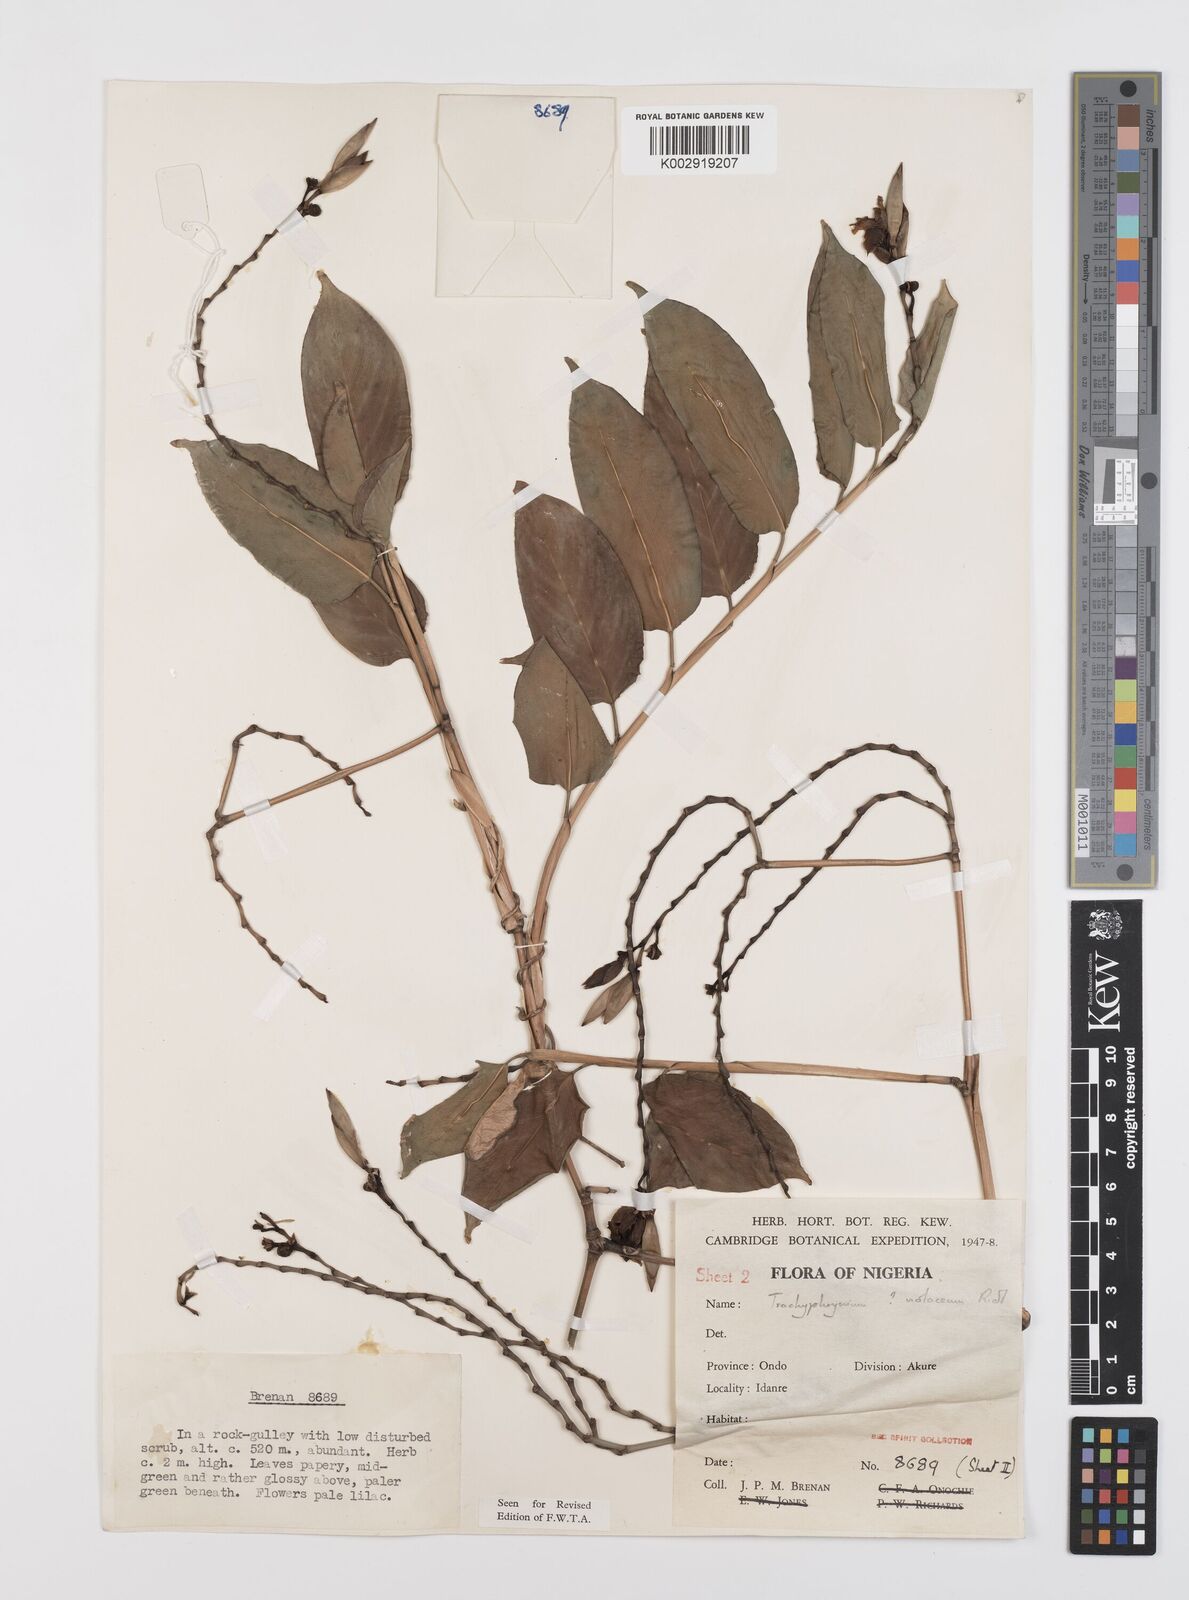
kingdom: Plantae
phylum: Tracheophyta
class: Liliopsida
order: Zingiberales
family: Marantaceae
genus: Hypselodelphys
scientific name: Hypselodelphys poggeana
